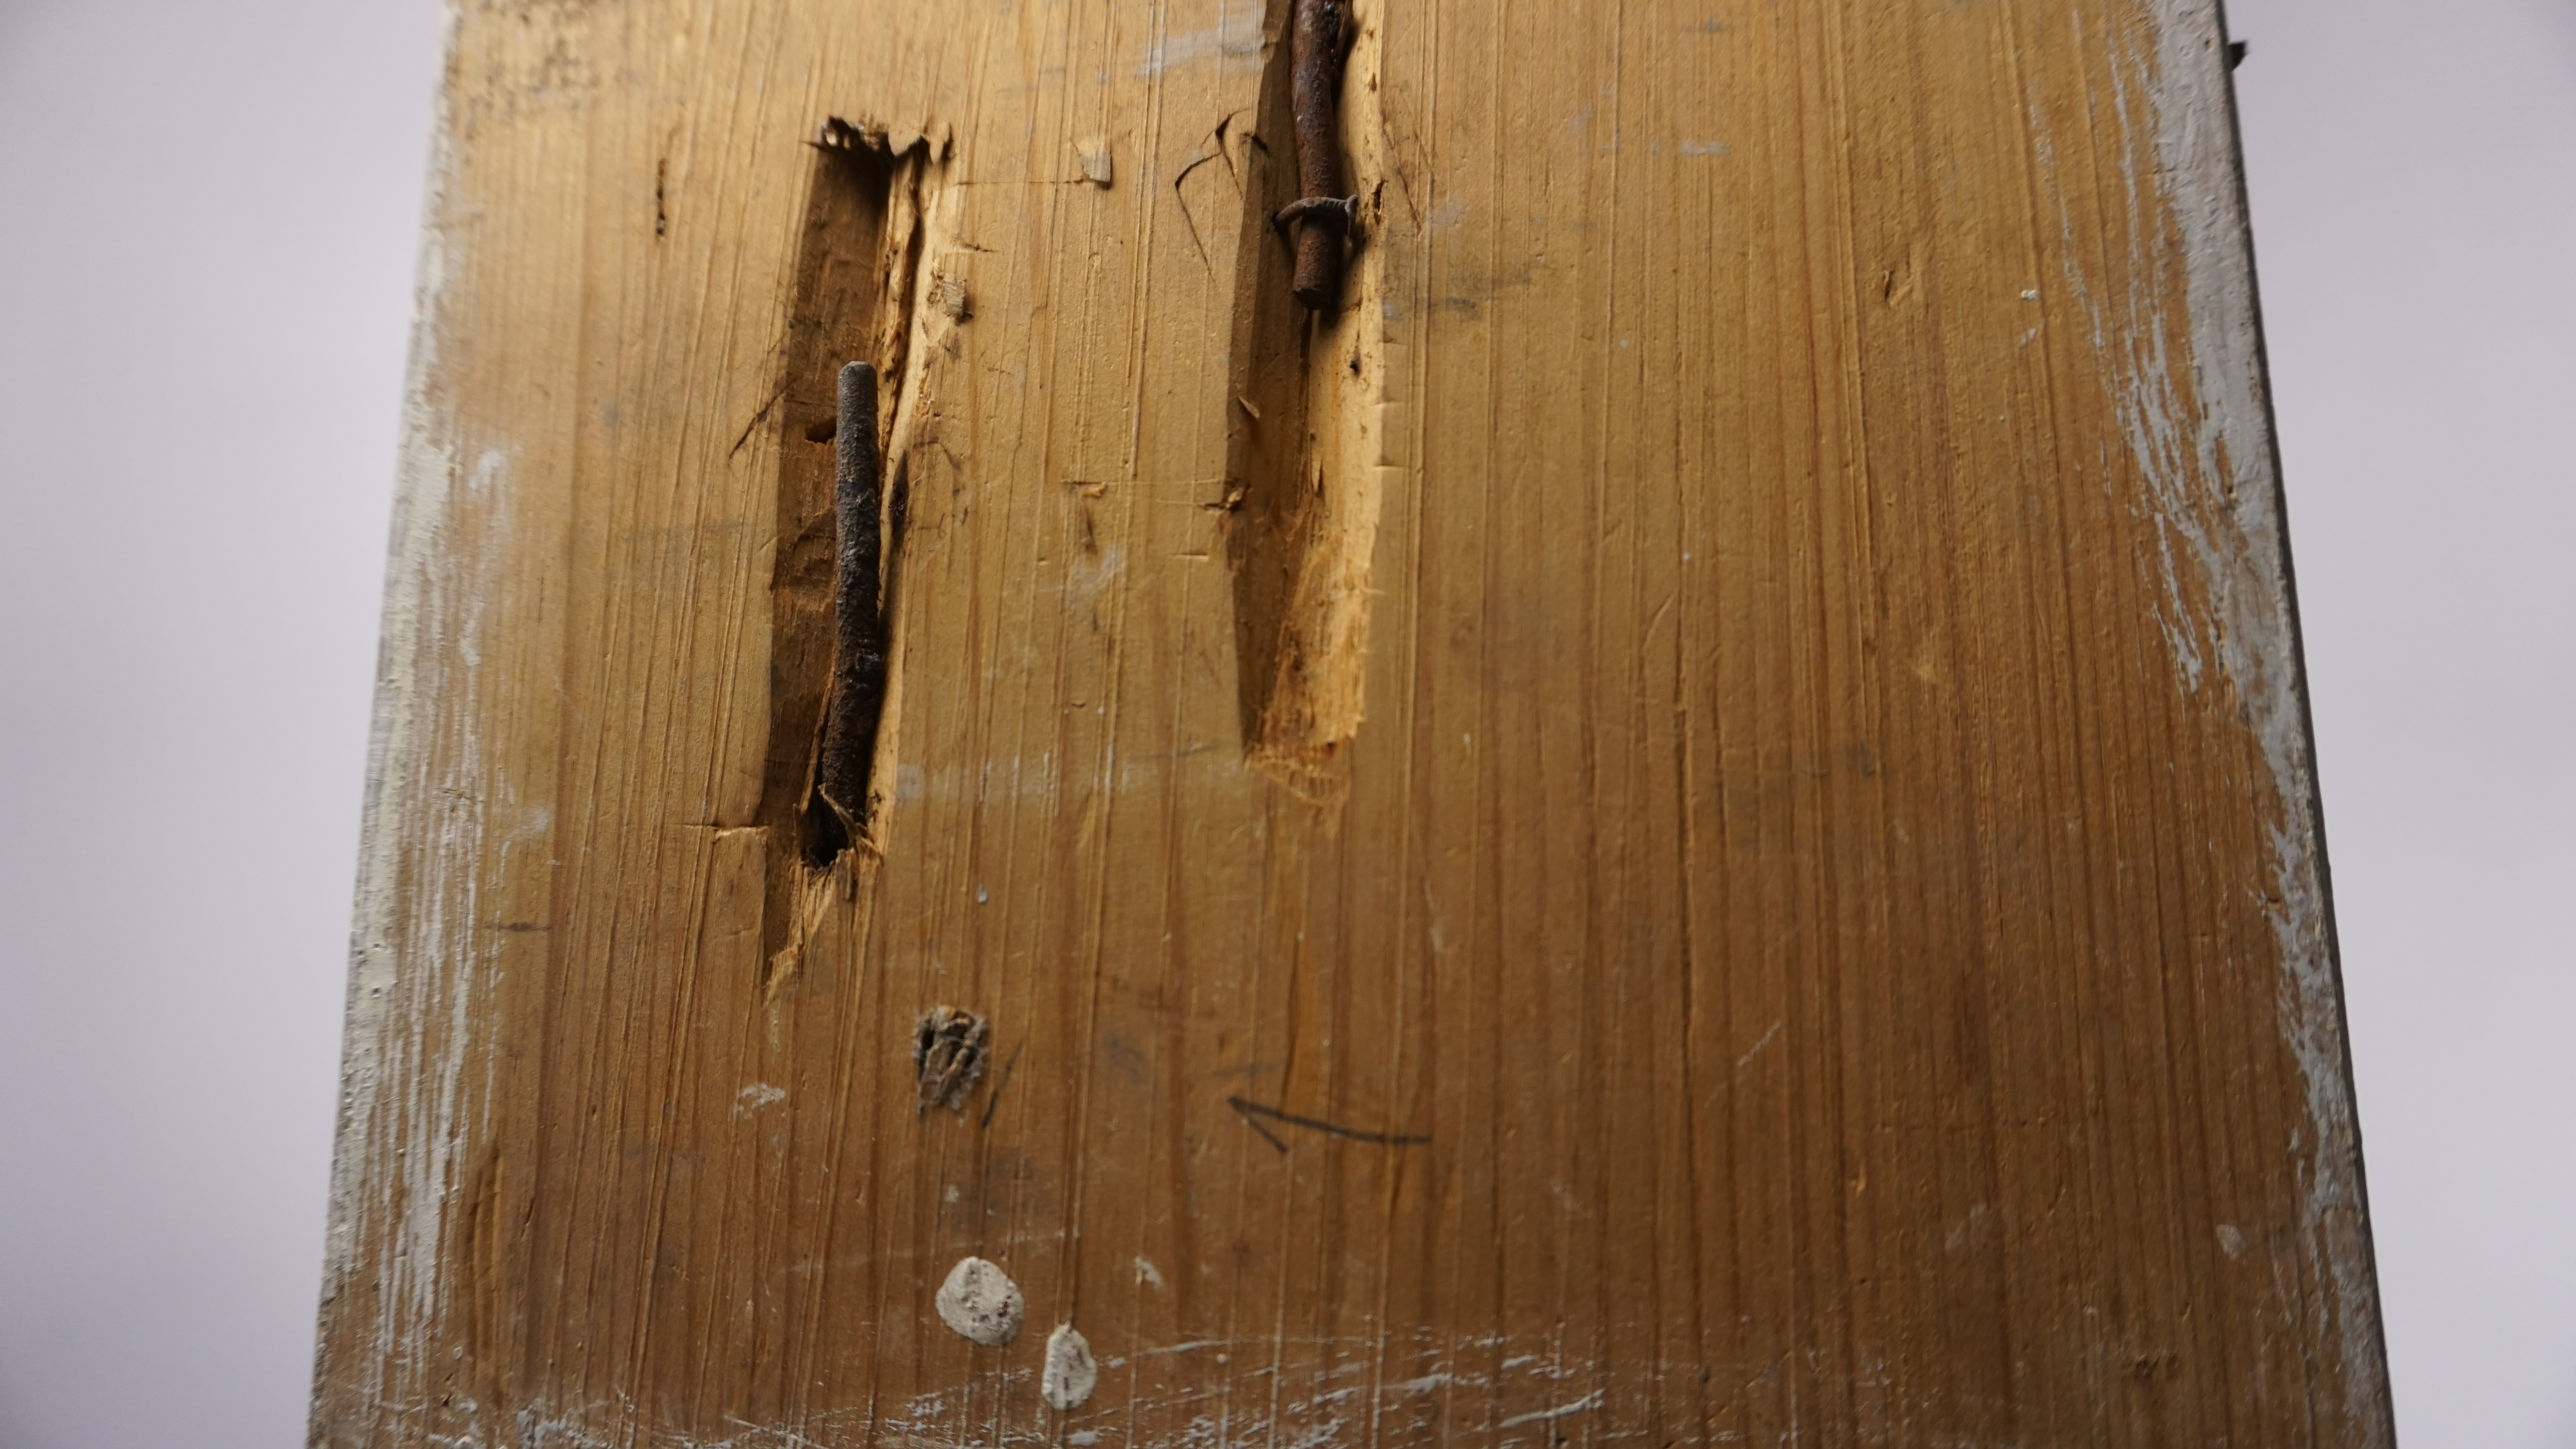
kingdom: Animalia
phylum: Chordata
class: Aves
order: Pelecaniformes
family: Ardeidae
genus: Ardea
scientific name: Ardea alba
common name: Great egret
